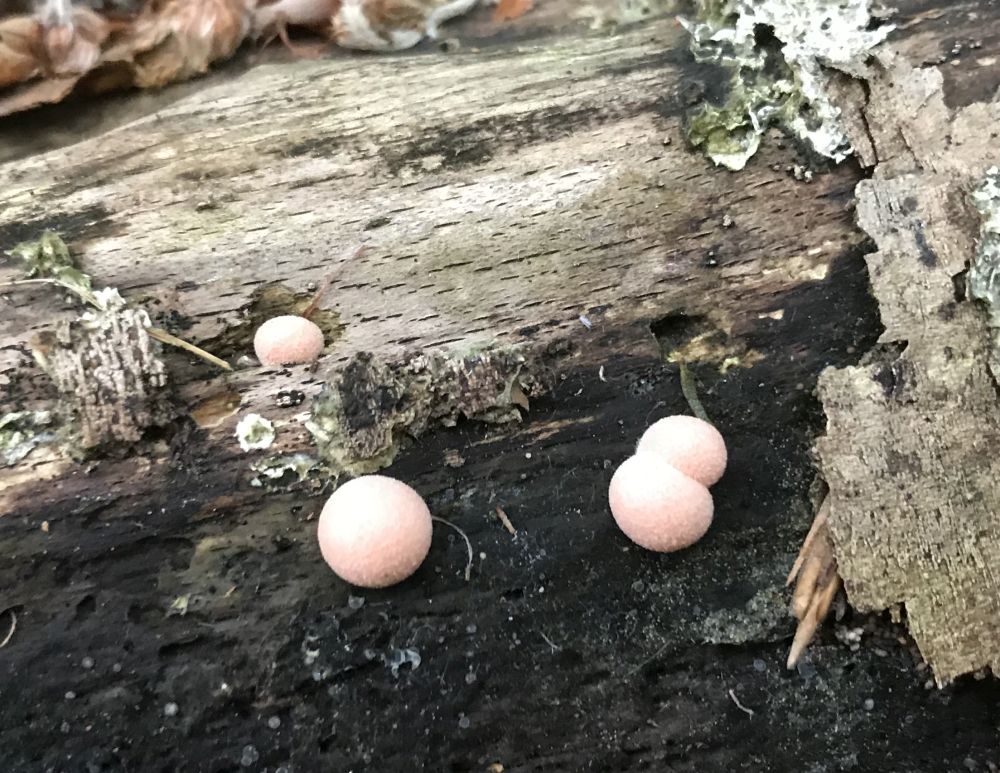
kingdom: Protozoa
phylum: Mycetozoa
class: Myxomycetes
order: Cribrariales
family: Tubiferaceae
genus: Lycogala
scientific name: Lycogala epidendrum
